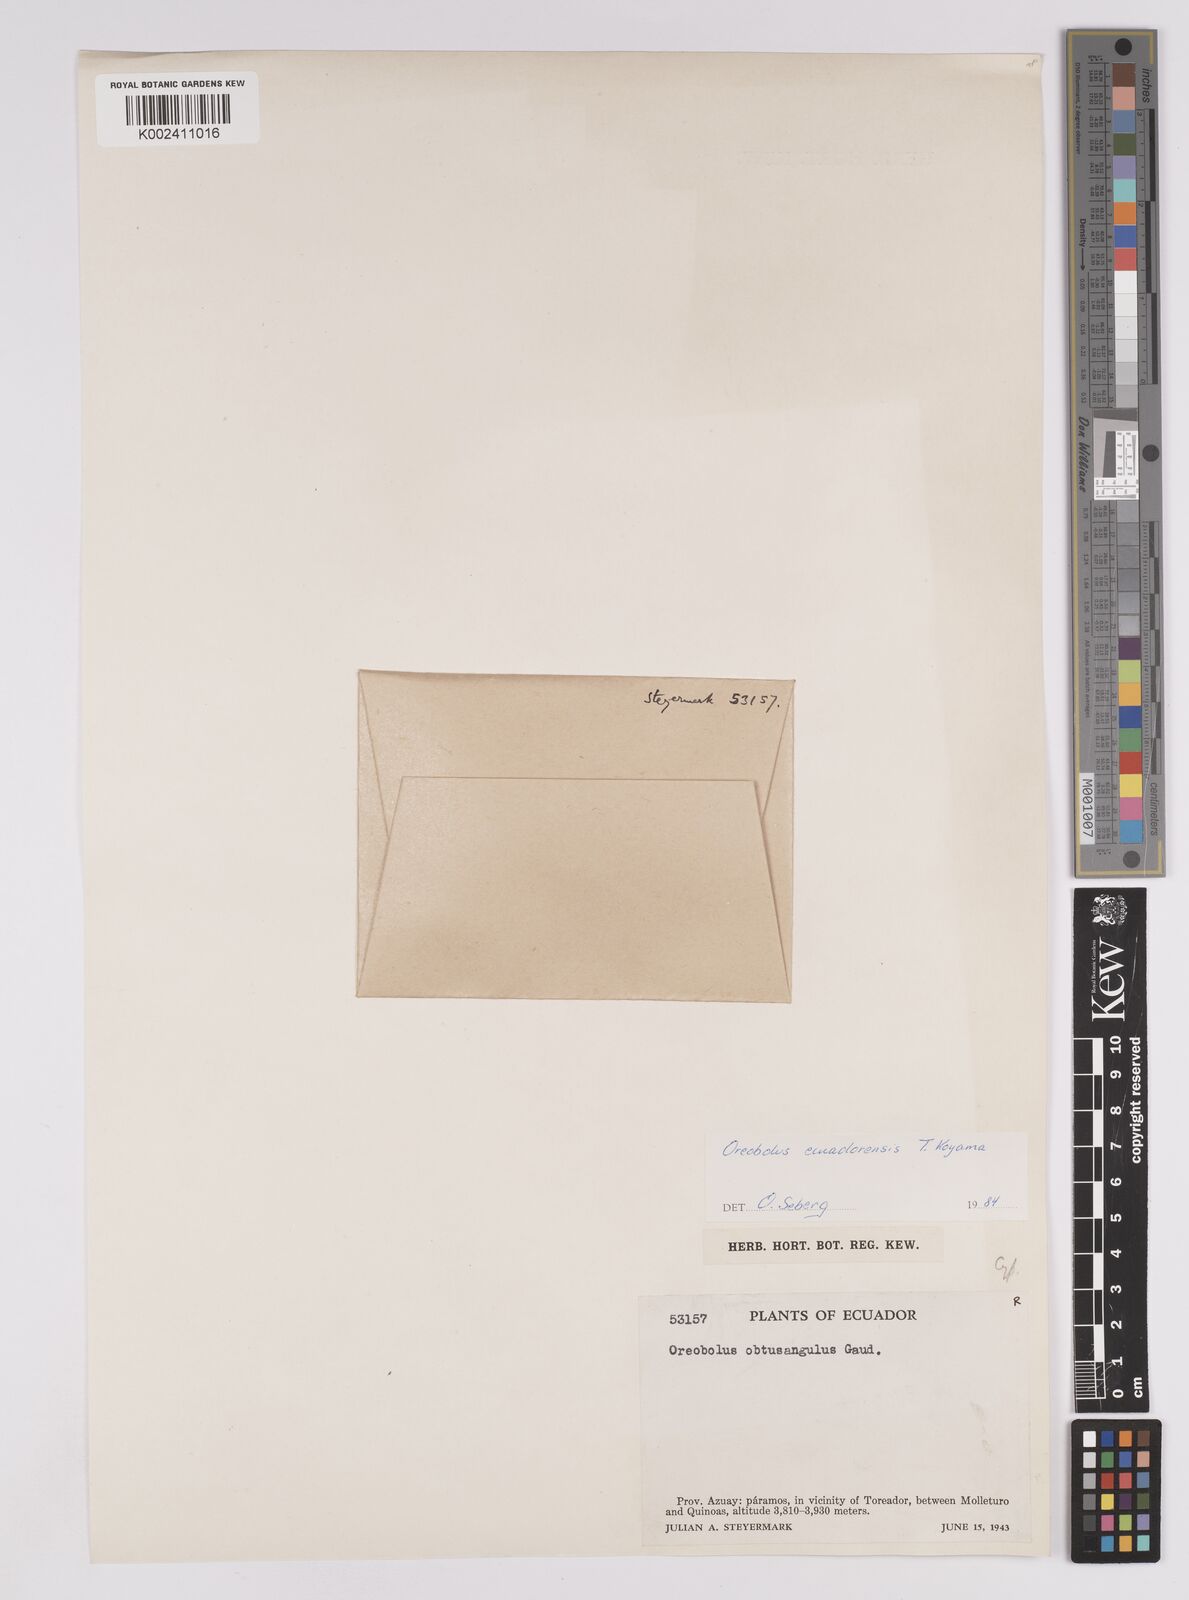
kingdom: Plantae
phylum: Tracheophyta
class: Liliopsida
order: Poales
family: Cyperaceae
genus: Oreobolus
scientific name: Oreobolus obtusangulus
